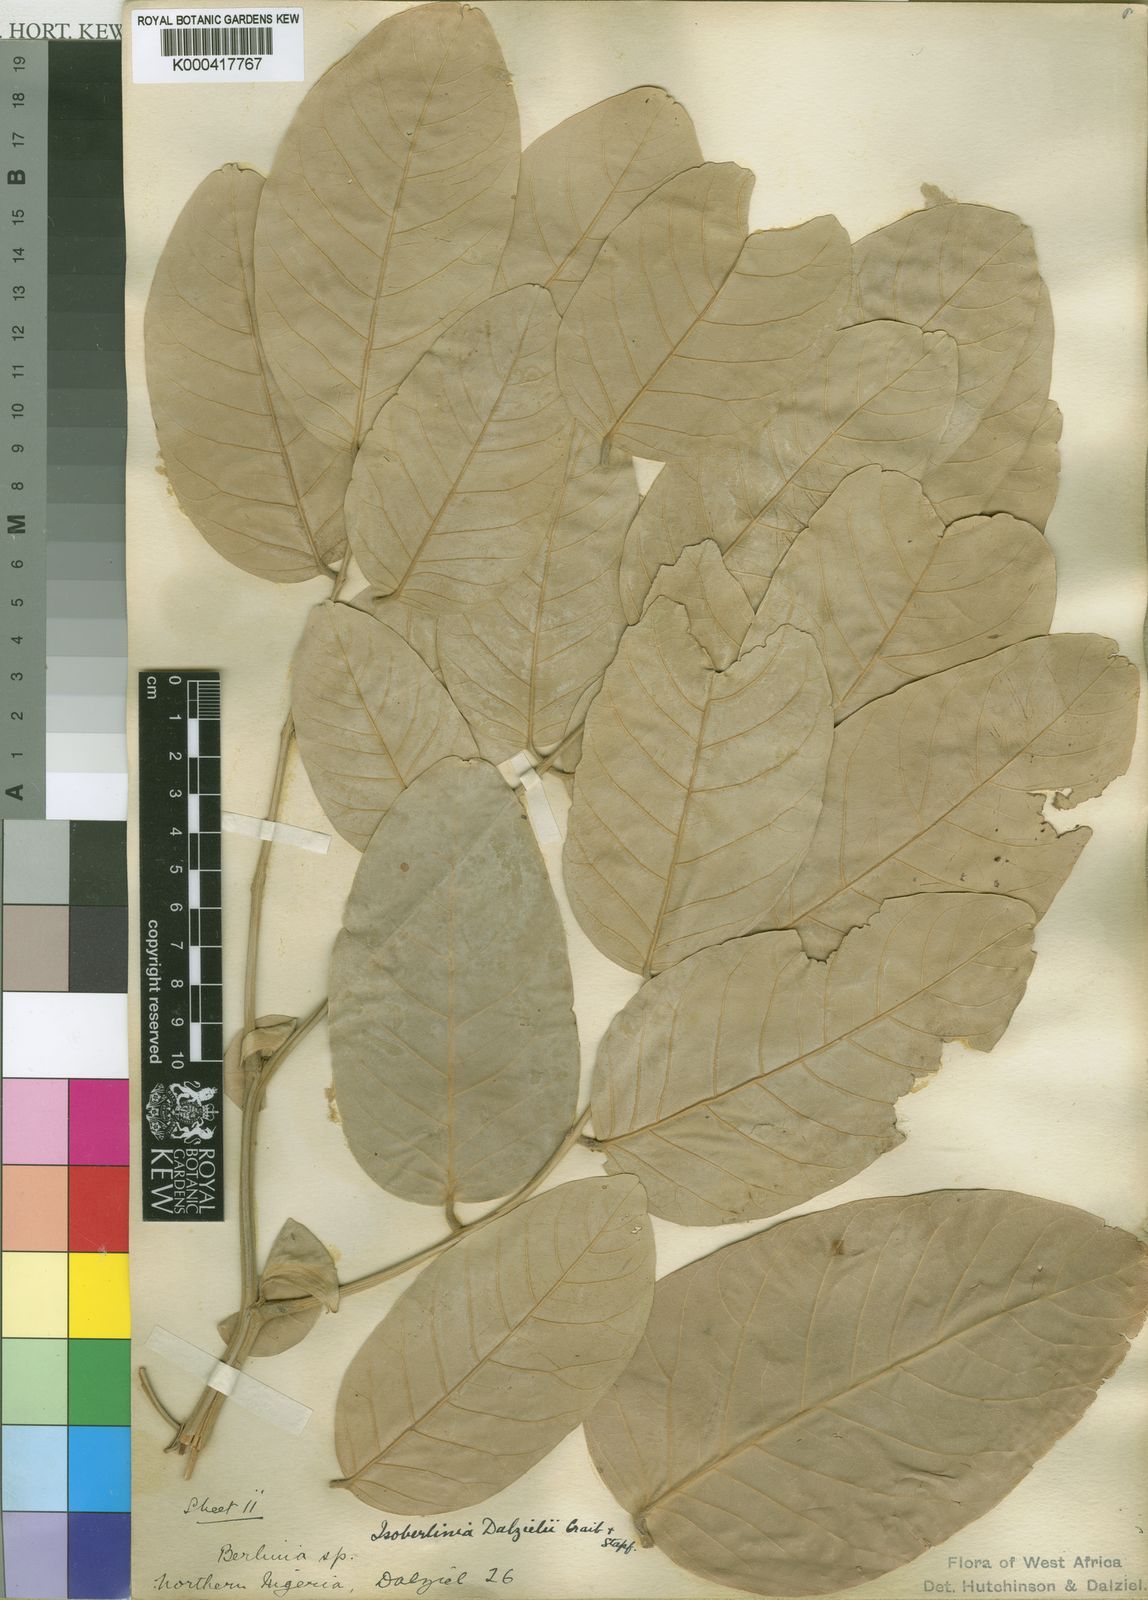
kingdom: Plantae
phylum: Tracheophyta
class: Magnoliopsida
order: Fabales
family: Fabaceae
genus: Isoberlinia
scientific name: Isoberlinia tomentosa
